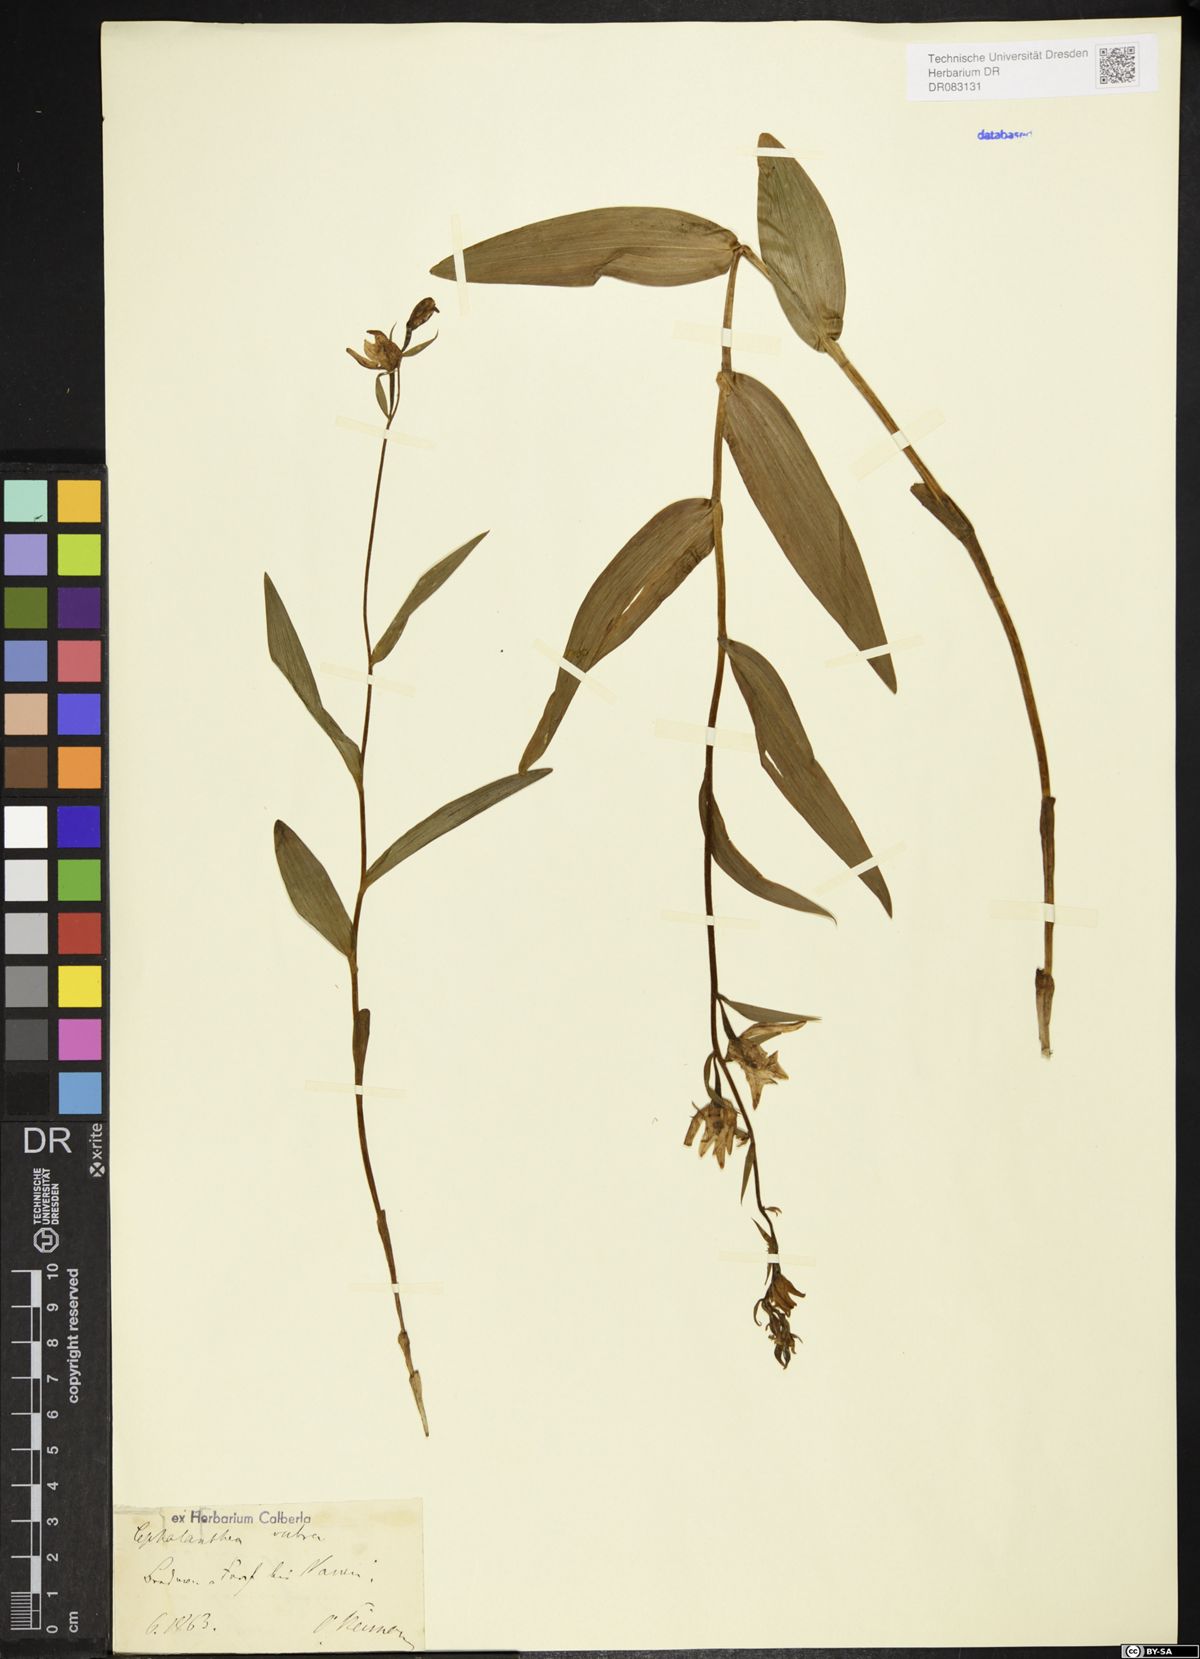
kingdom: Plantae
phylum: Tracheophyta
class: Liliopsida
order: Asparagales
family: Orchidaceae
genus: Cephalanthera
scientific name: Cephalanthera rubra
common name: Red helleborine
